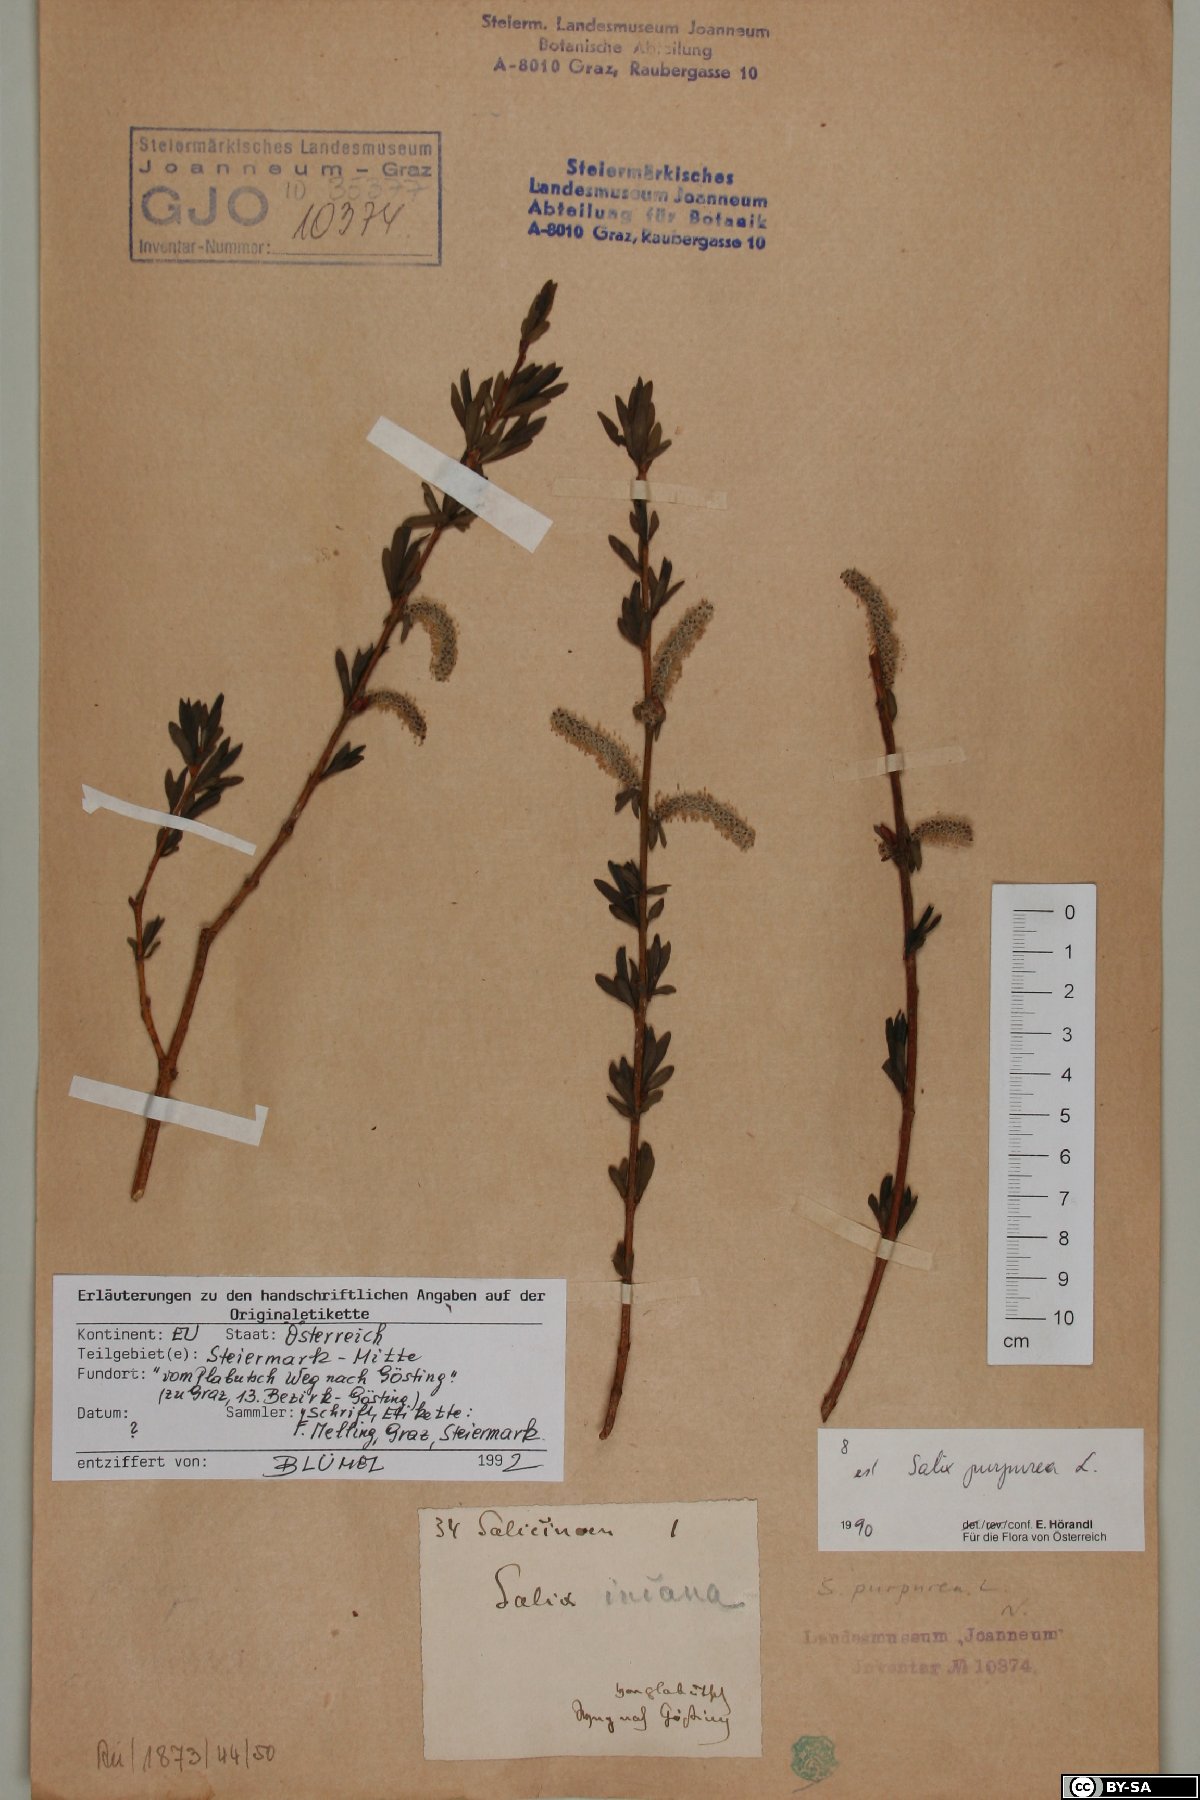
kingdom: Plantae
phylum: Tracheophyta
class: Magnoliopsida
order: Malpighiales
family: Salicaceae
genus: Salix
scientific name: Salix purpurea
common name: Purple willow
